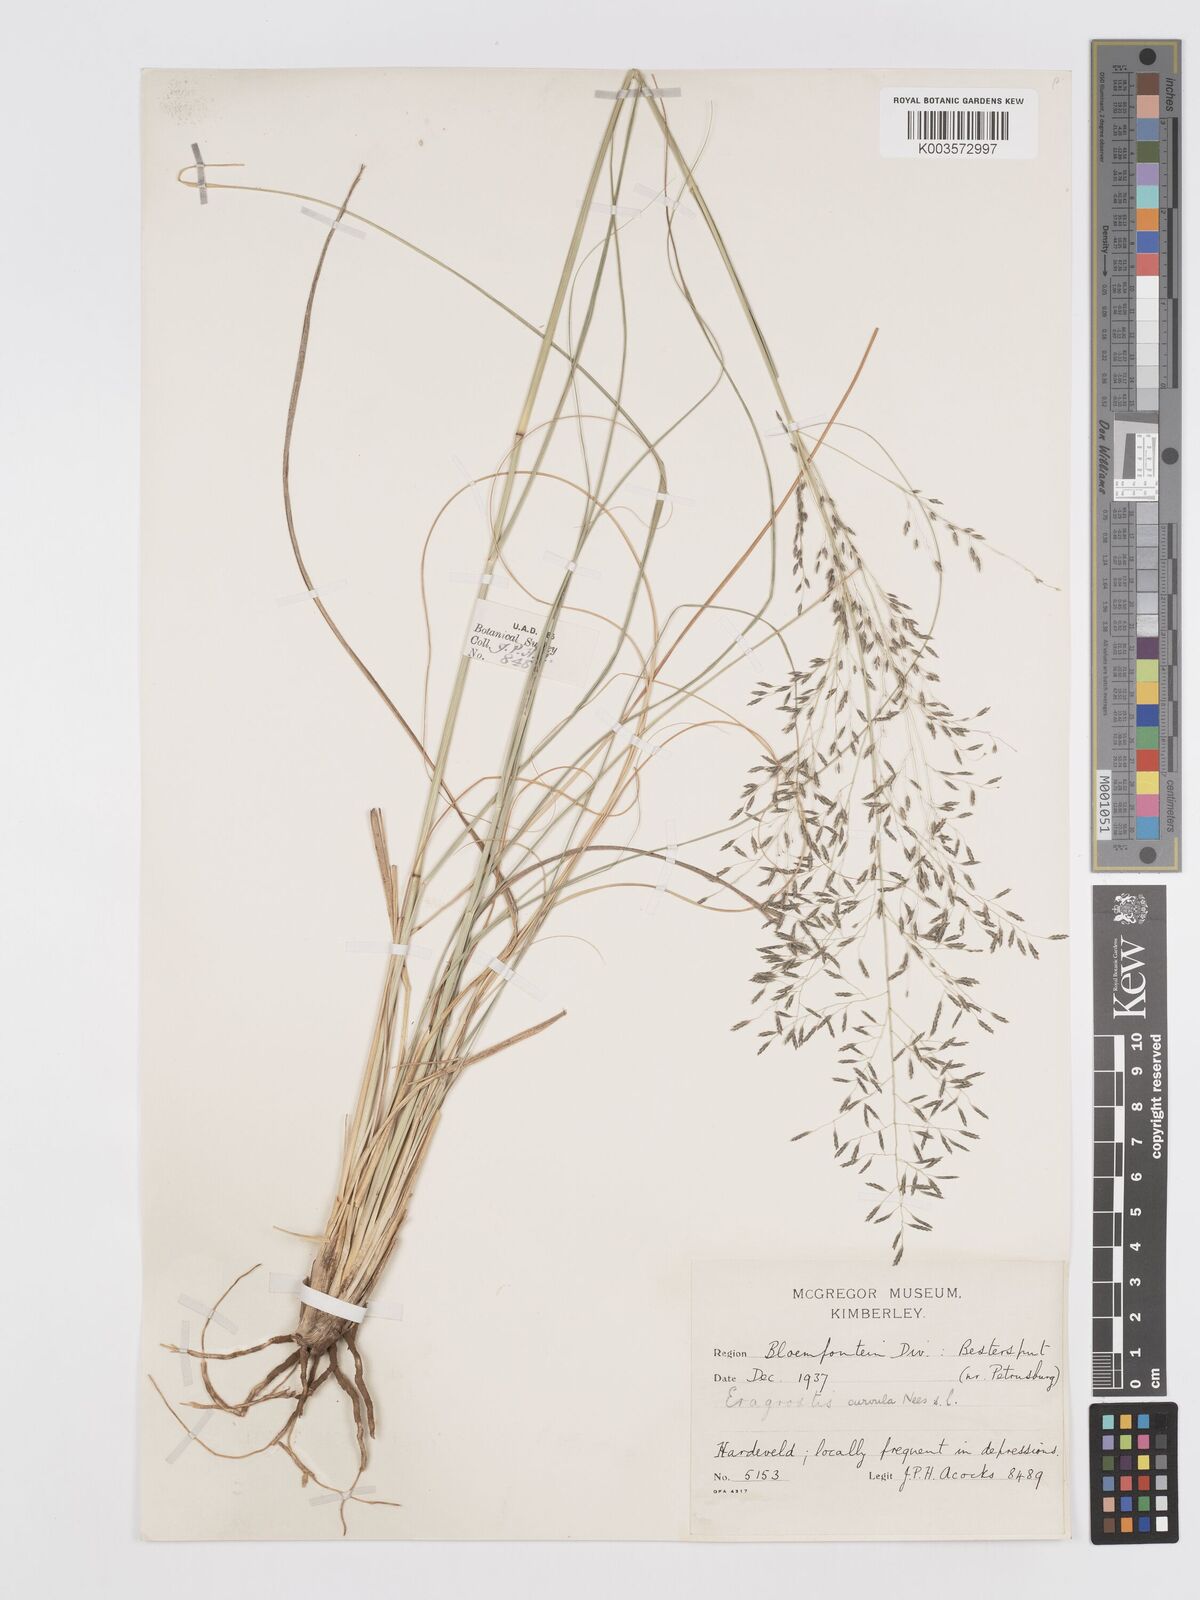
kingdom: Plantae
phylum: Tracheophyta
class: Liliopsida
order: Poales
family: Poaceae
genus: Eragrostis
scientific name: Eragrostis curvula
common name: African love-grass
